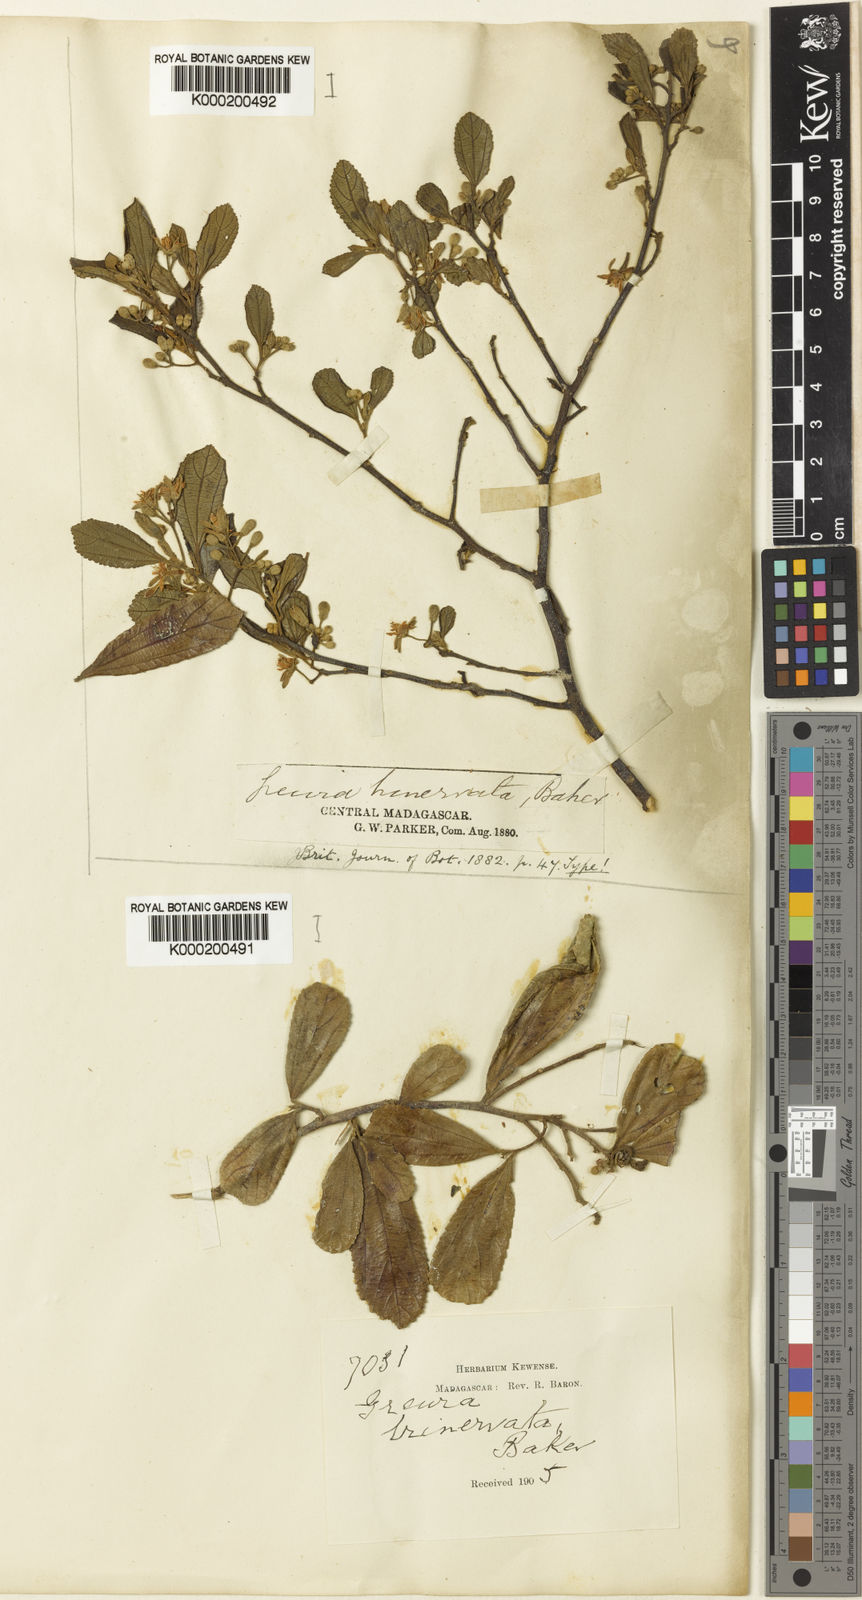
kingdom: Plantae
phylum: Tracheophyta
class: Magnoliopsida
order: Malvales
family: Malvaceae
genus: Grewia
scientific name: Grewia cuneifolia
